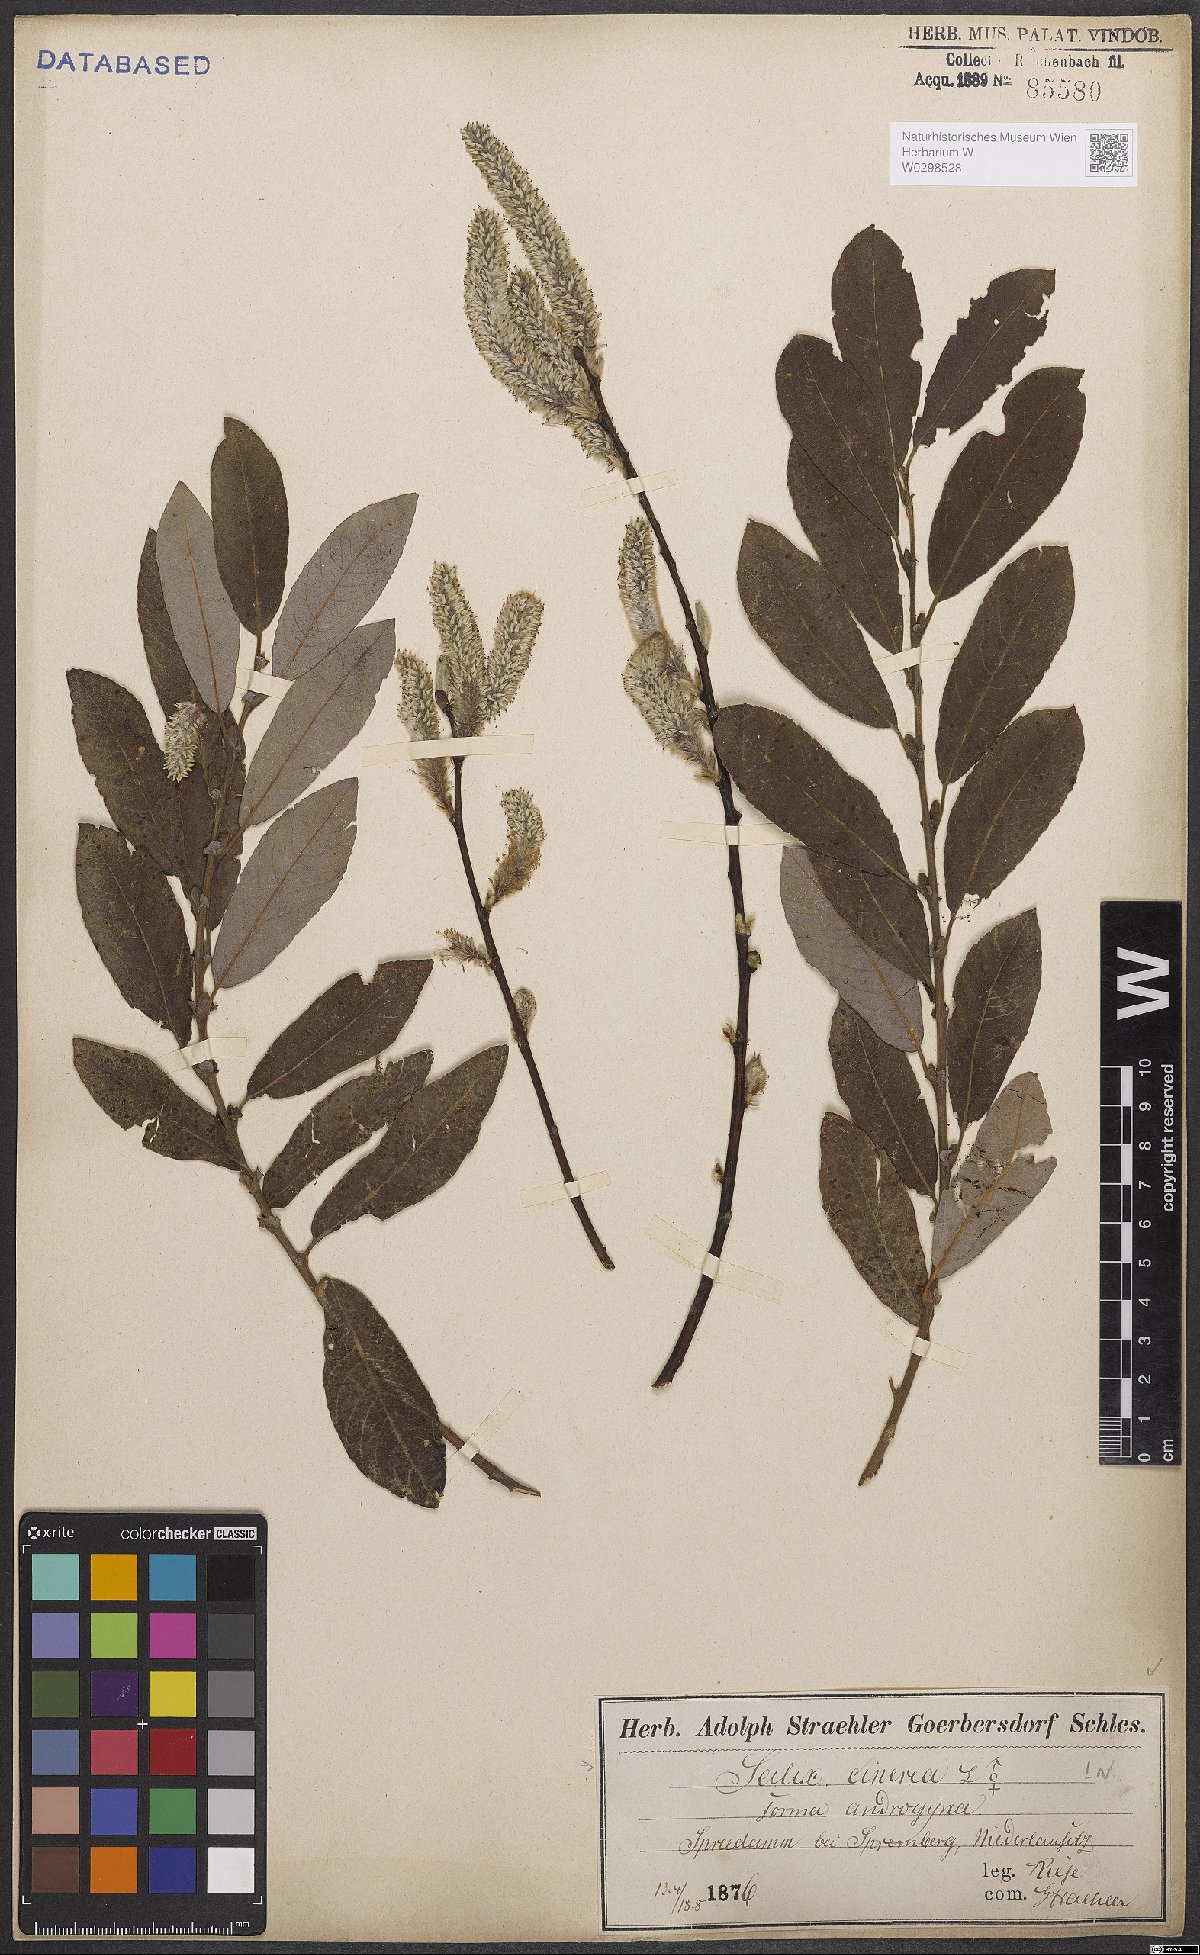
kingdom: Plantae
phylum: Tracheophyta
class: Magnoliopsida
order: Malpighiales
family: Salicaceae
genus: Salix
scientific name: Salix cinerea
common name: Common sallow
